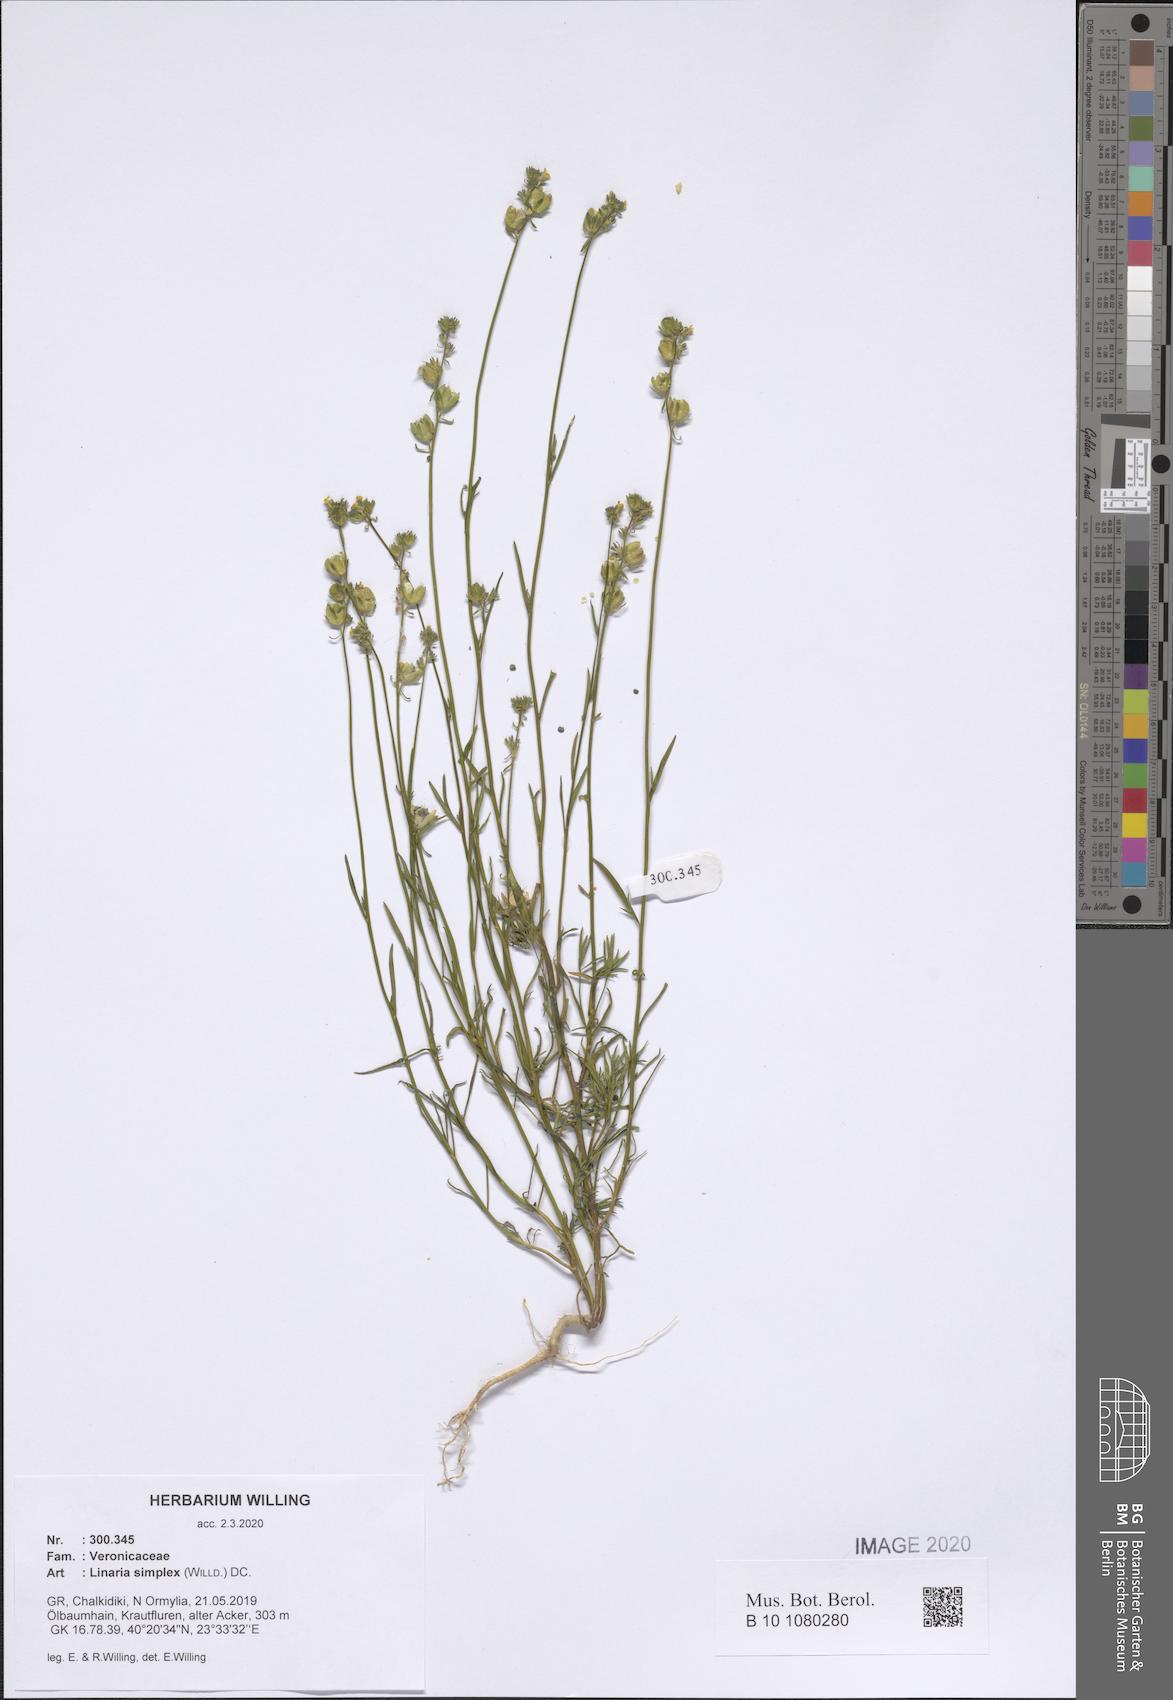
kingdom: Plantae
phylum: Tracheophyta
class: Magnoliopsida
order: Lamiales
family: Plantaginaceae
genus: Linaria
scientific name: Linaria simplex
